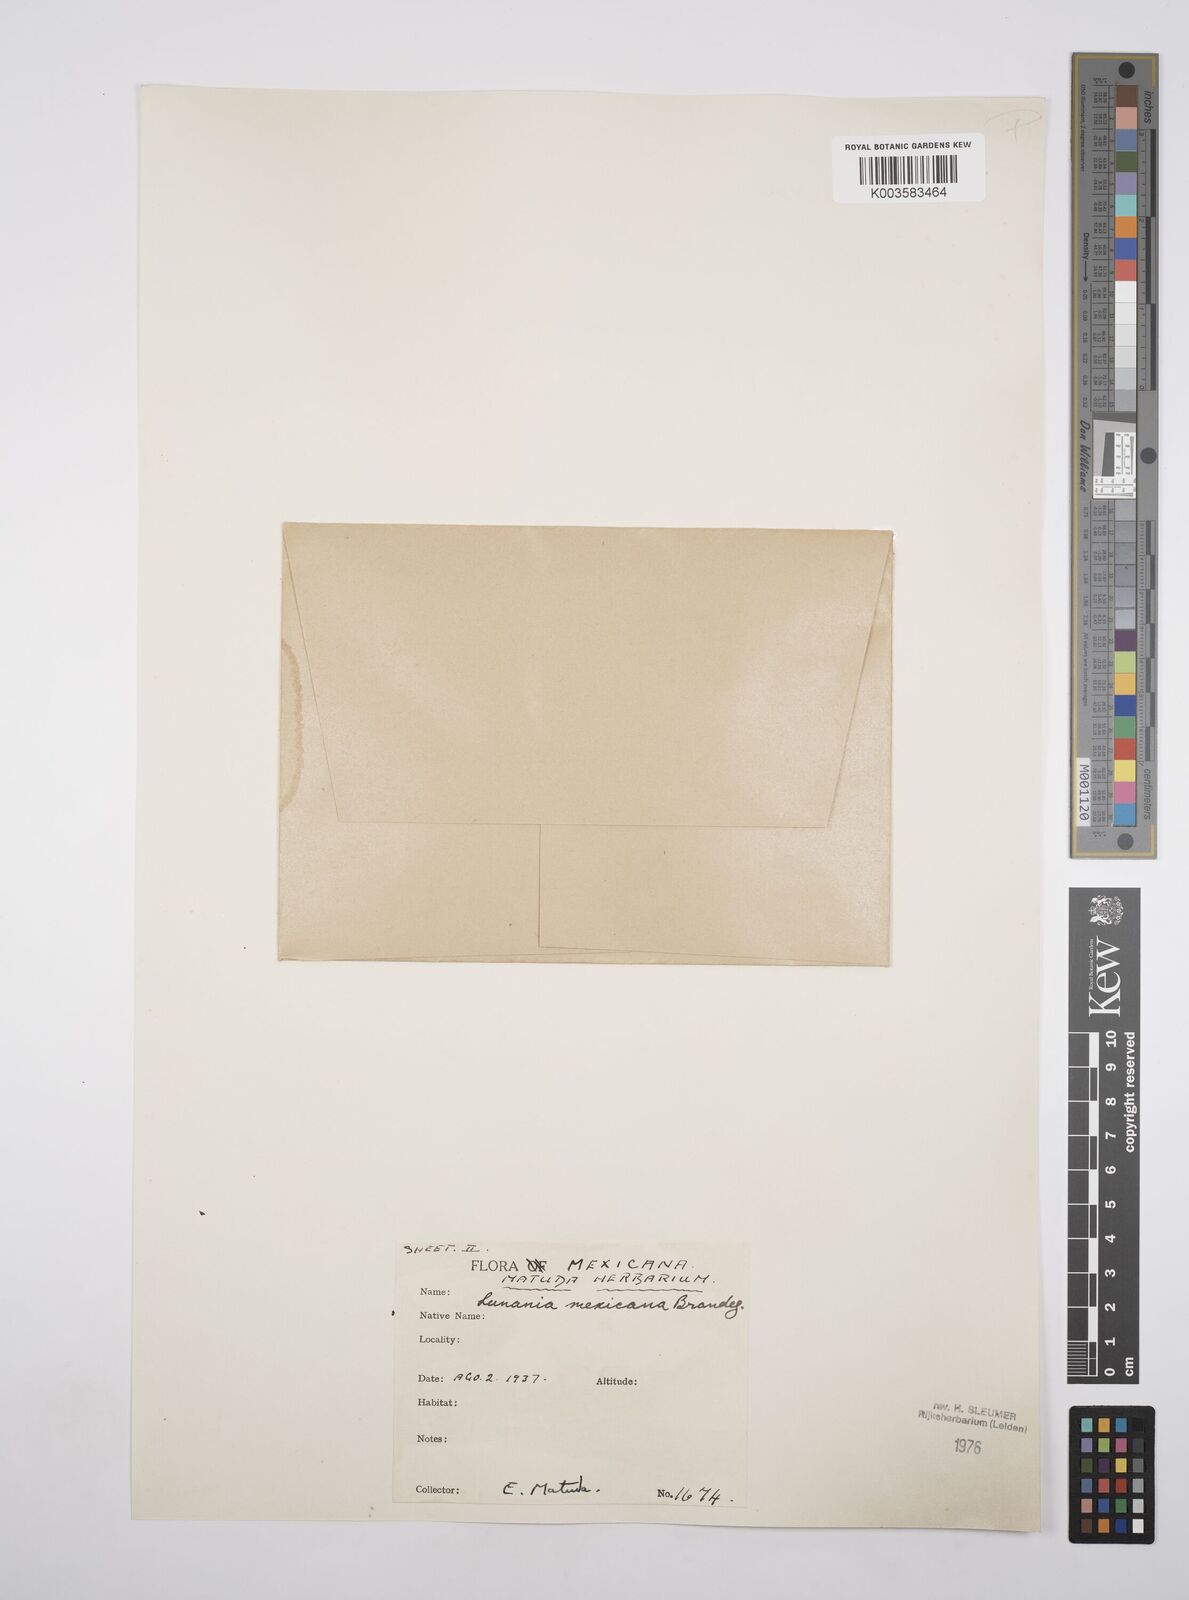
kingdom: Plantae
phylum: Tracheophyta
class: Magnoliopsida
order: Malpighiales
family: Salicaceae
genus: Lunania
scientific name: Lunania mexicana
